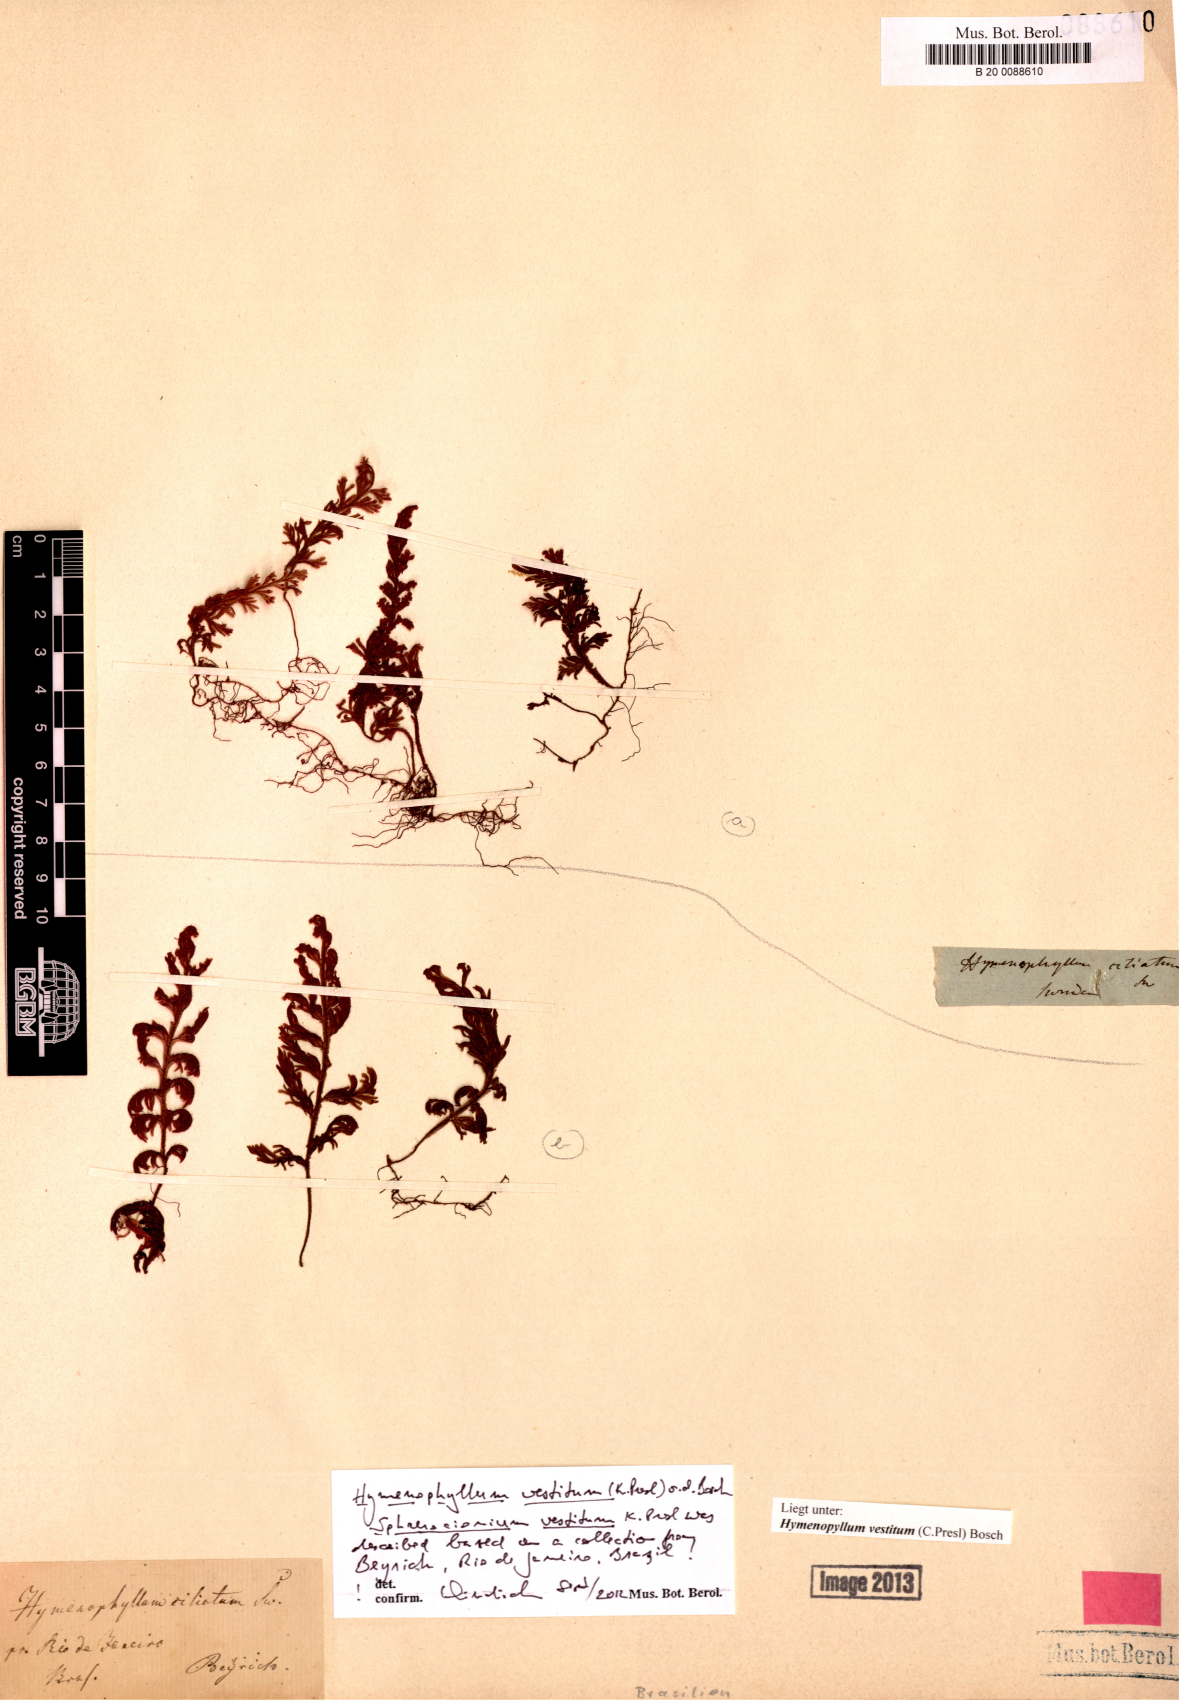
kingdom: Plantae
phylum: Tracheophyta
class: Polypodiopsida
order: Hymenophyllales
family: Hymenophyllaceae
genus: Hymenophyllum
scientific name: Hymenophyllum vestitum
